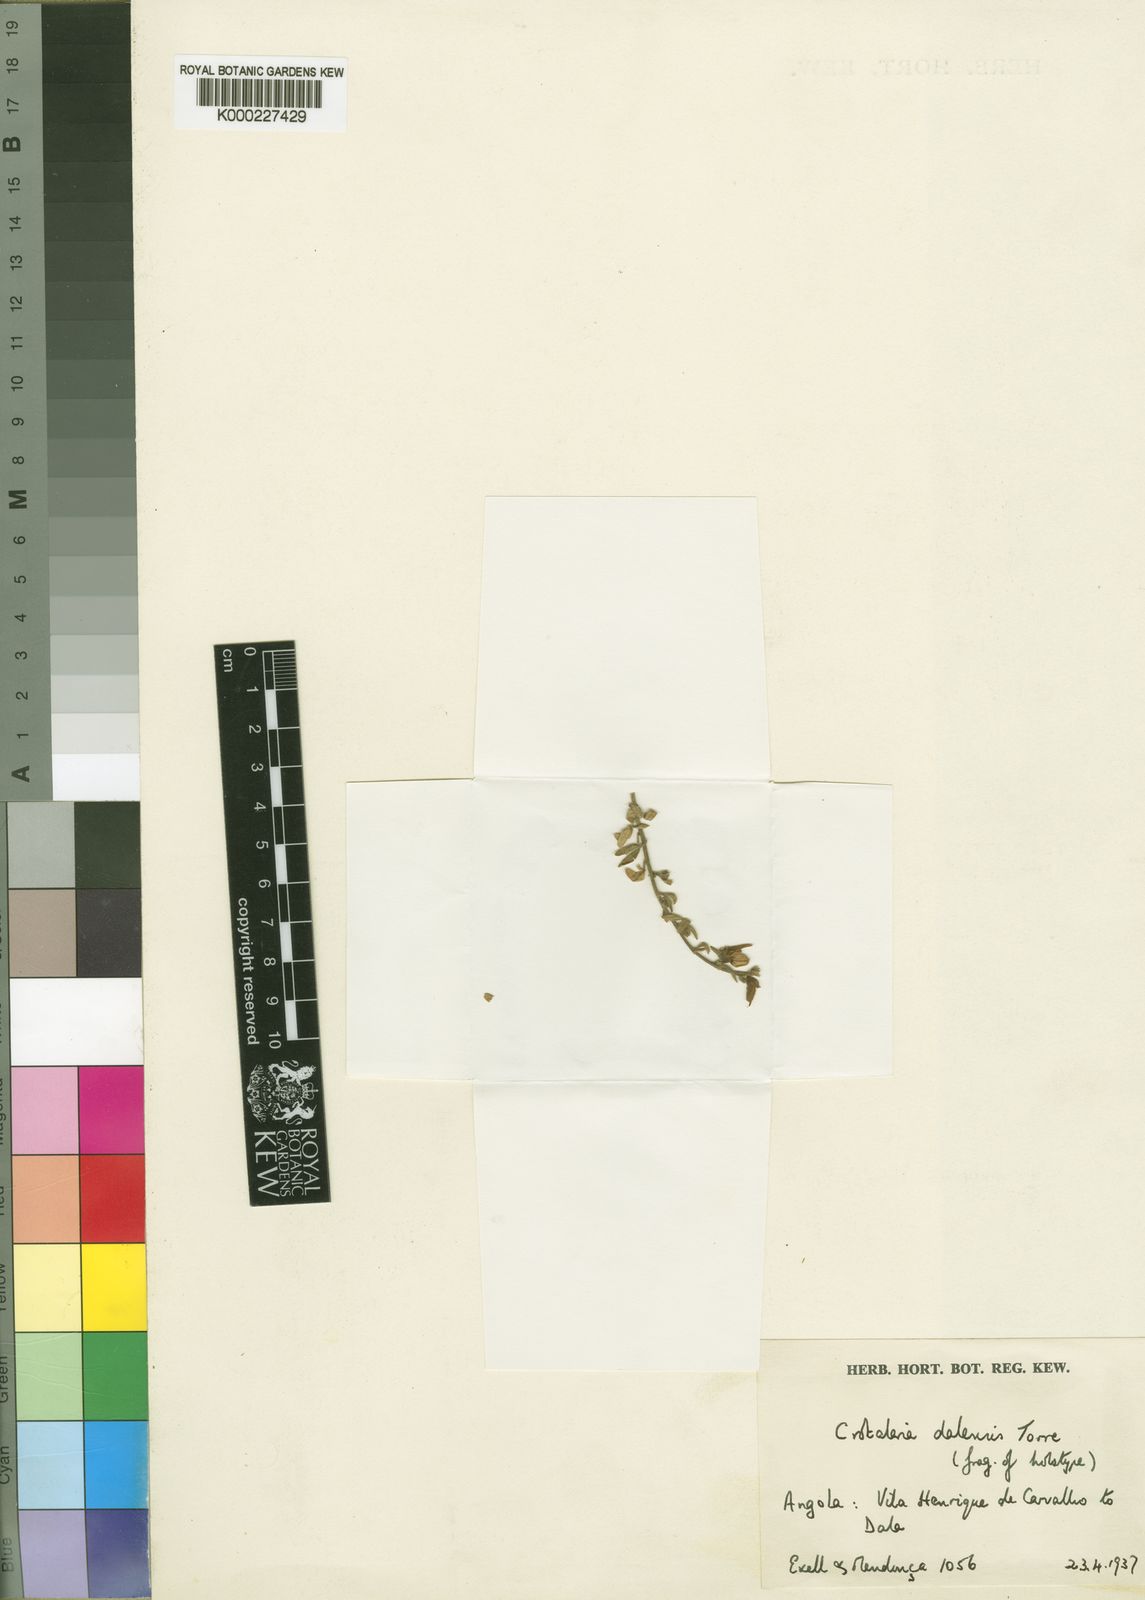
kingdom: Plantae
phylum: Tracheophyta
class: Magnoliopsida
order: Fabales
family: Fabaceae
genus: Crotalaria
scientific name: Crotalaria dalensis
